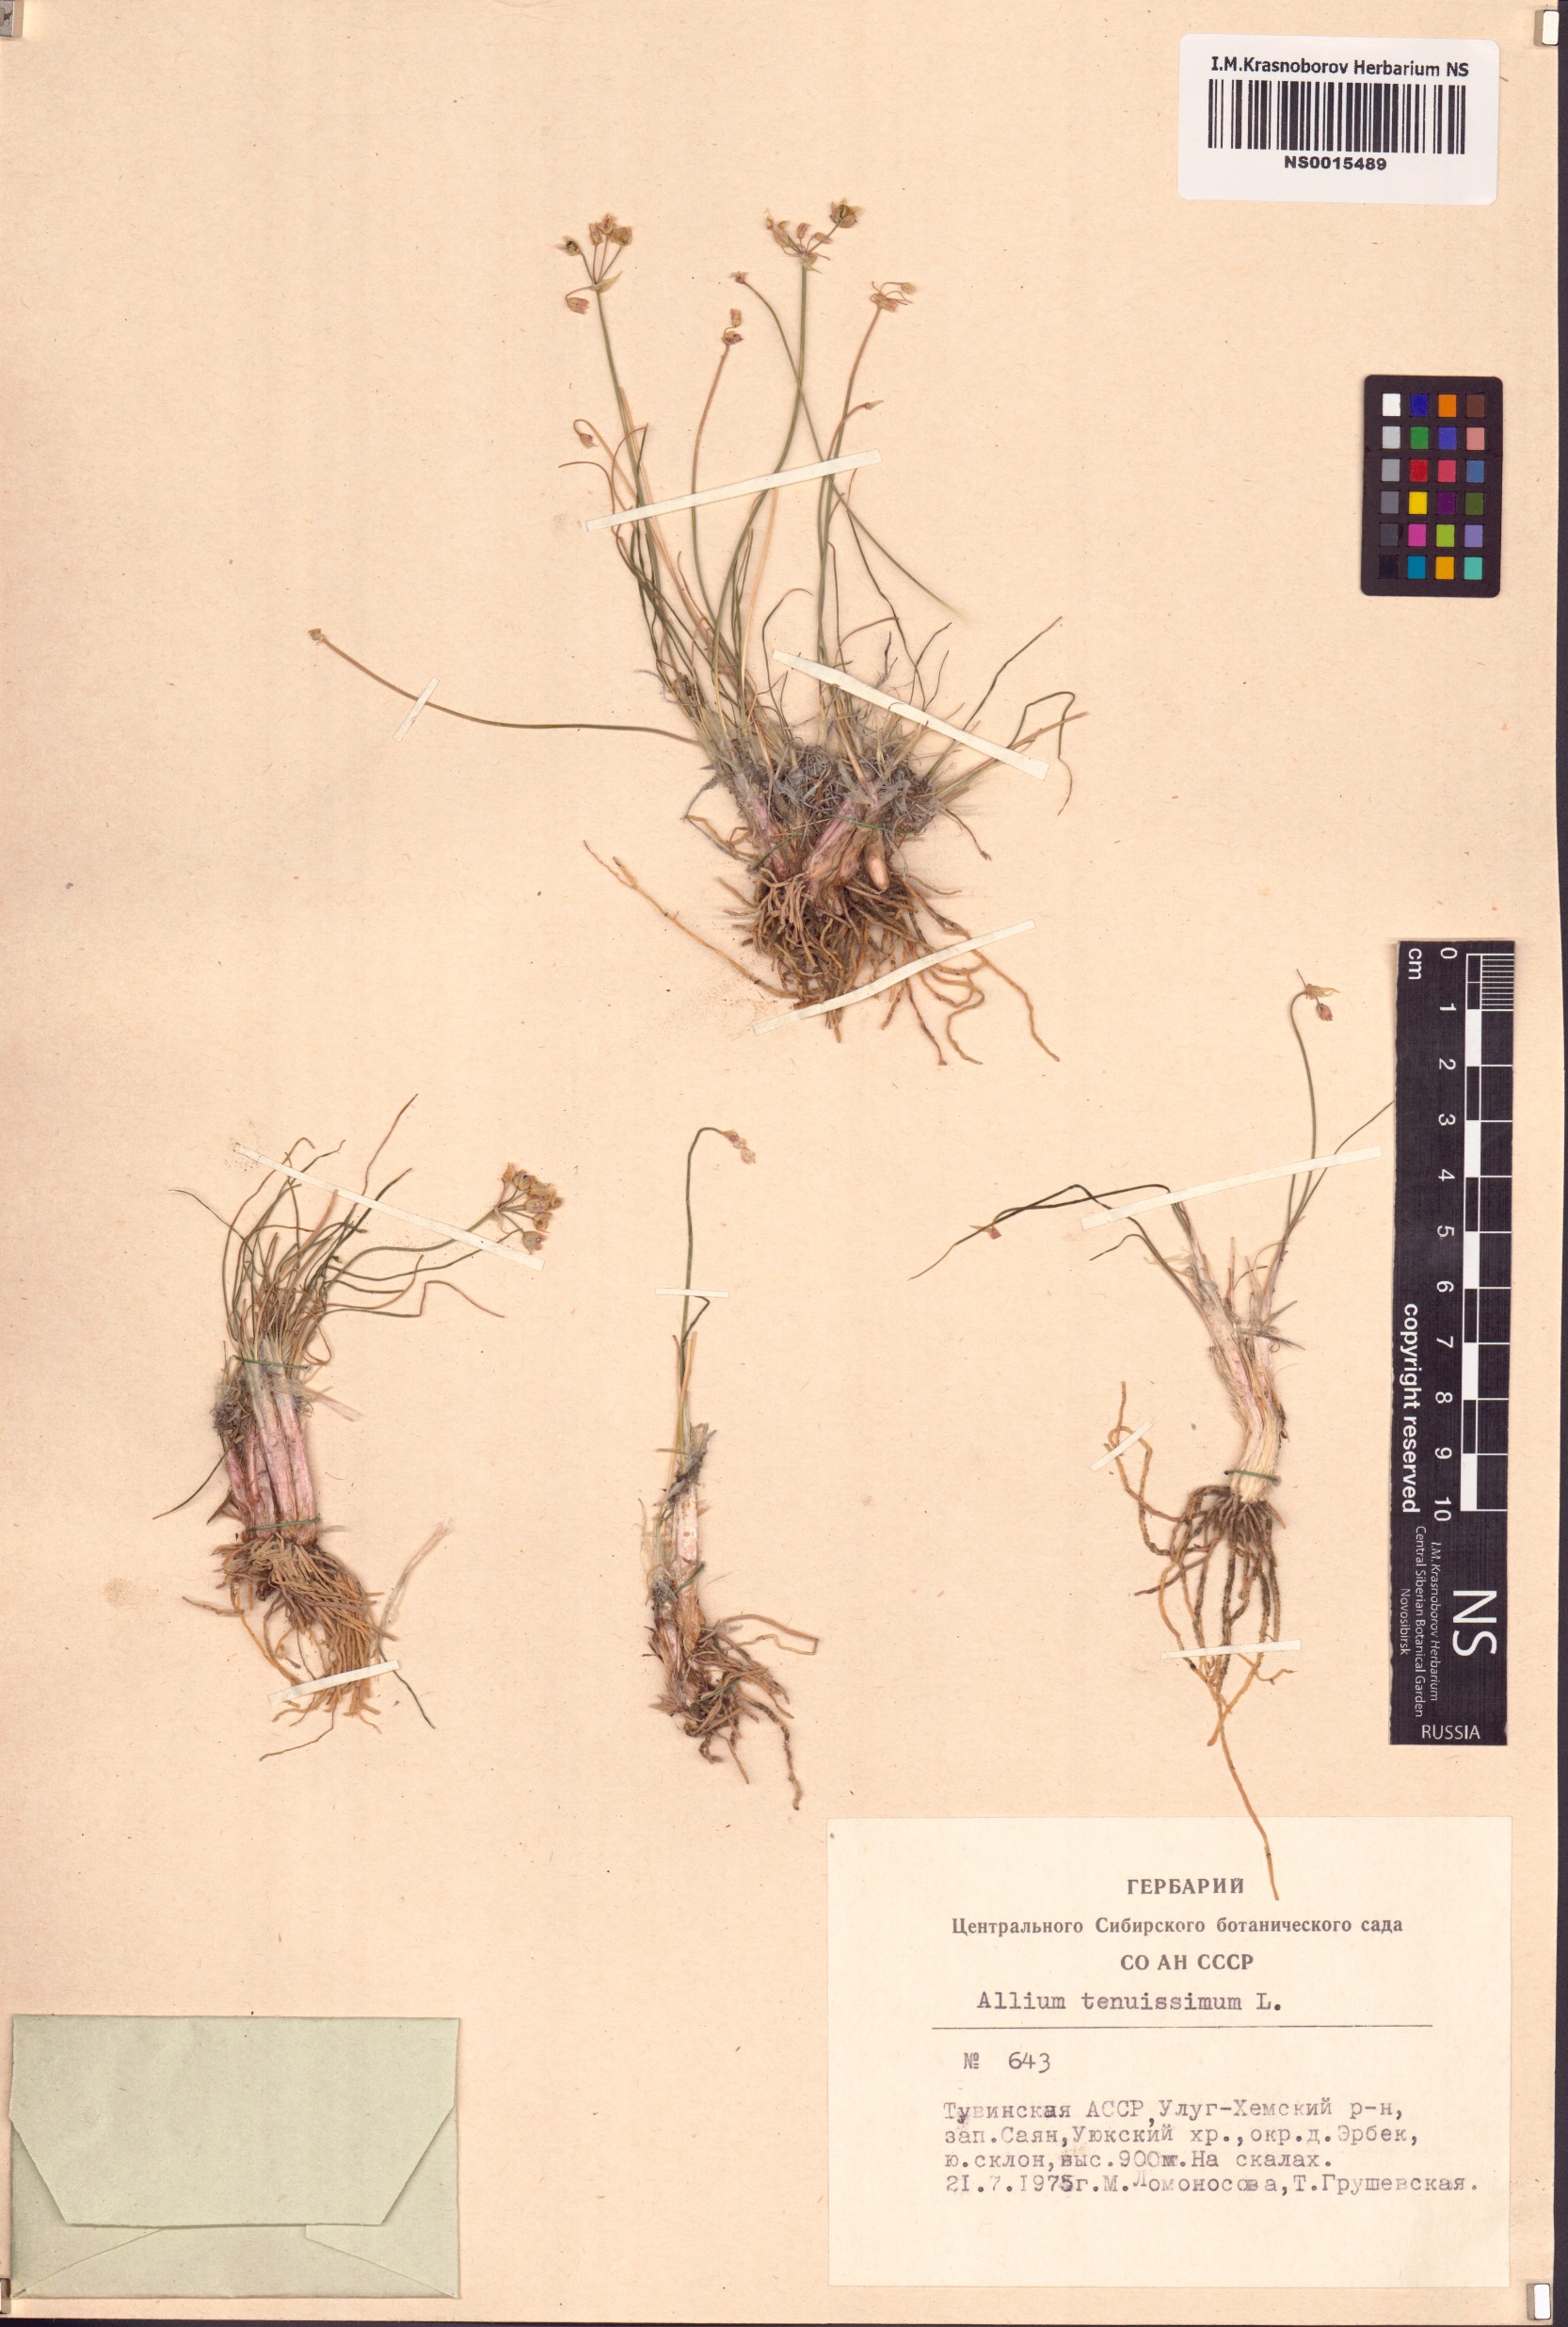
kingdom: Plantae
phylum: Tracheophyta
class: Liliopsida
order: Asparagales
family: Amaryllidaceae
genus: Allium
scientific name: Allium tenuissimum
